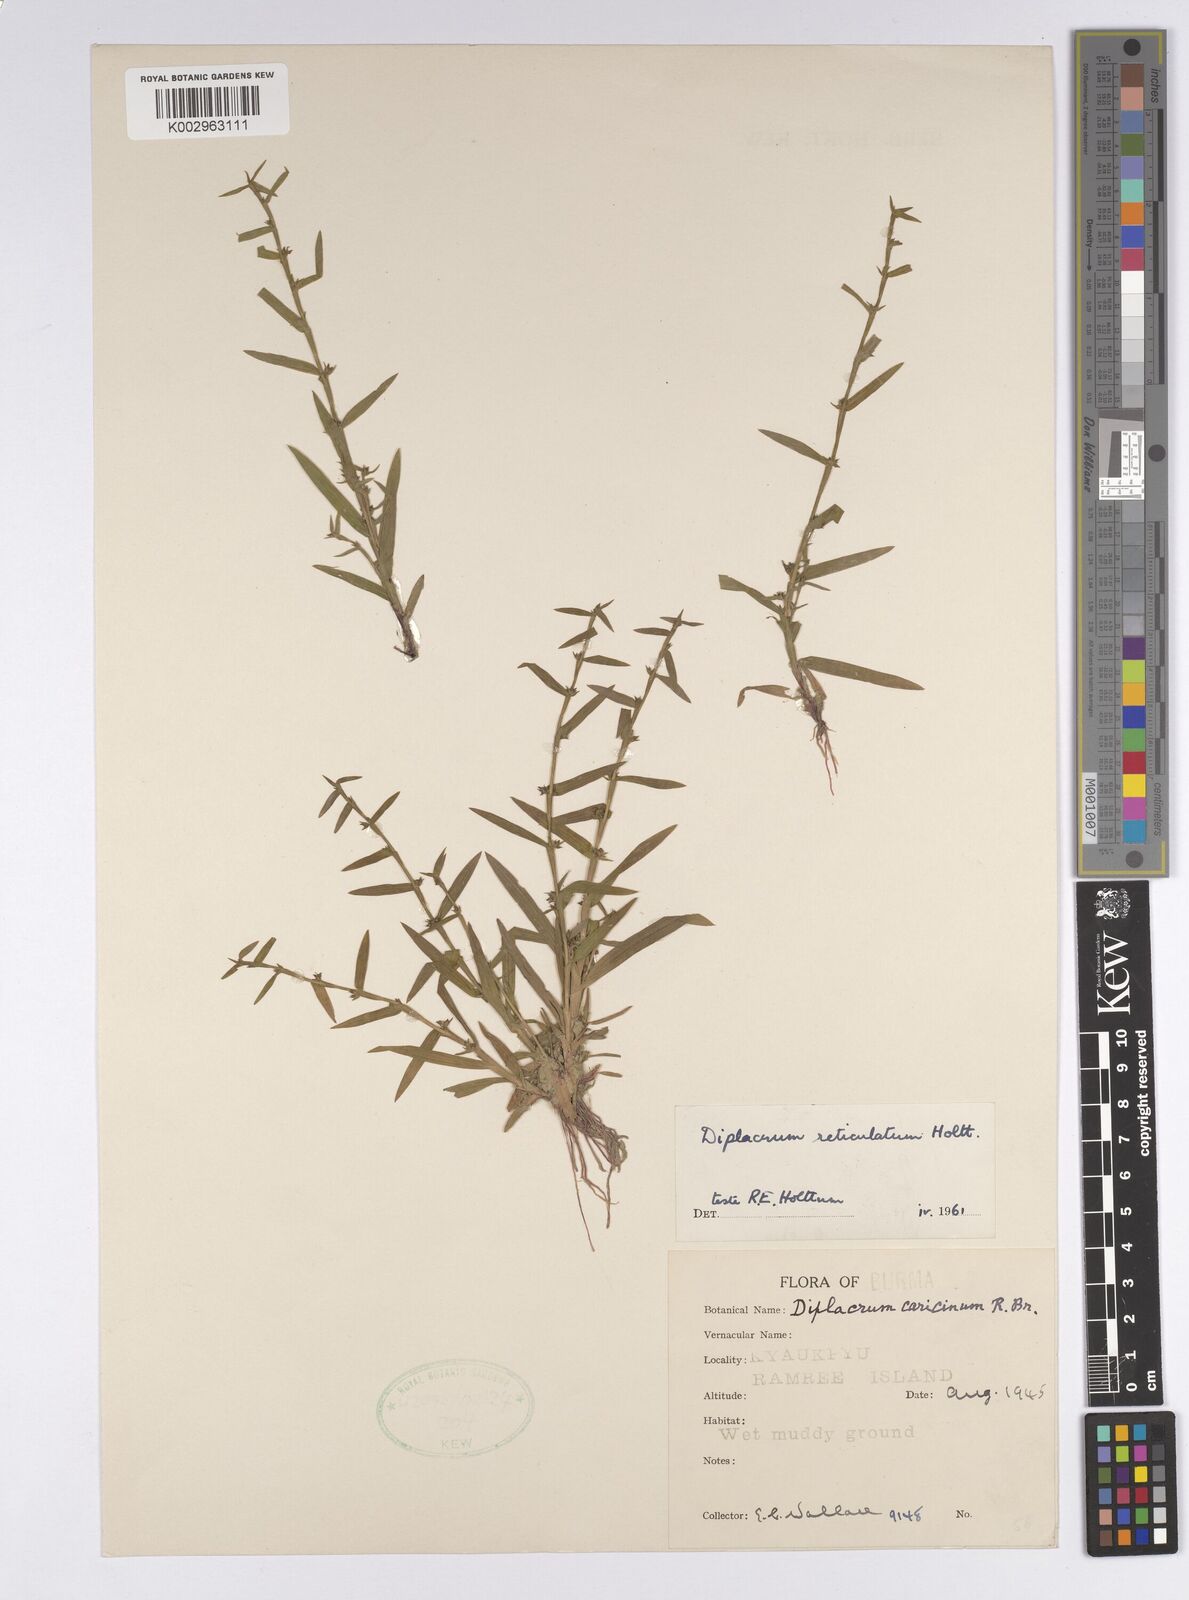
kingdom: Plantae
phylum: Tracheophyta
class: Liliopsida
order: Poales
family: Cyperaceae
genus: Diplacrum
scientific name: Diplacrum reticulatum
